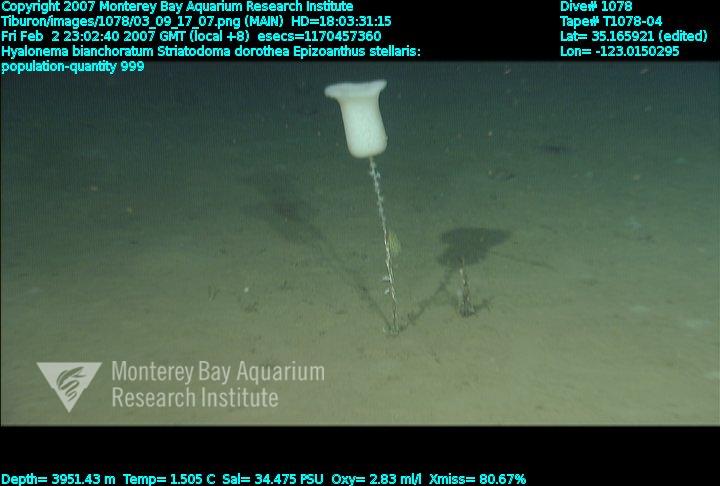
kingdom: Animalia
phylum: Porifera
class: Hexactinellida
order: Amphidiscosida
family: Hyalonematidae
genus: Hyalonema
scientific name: Hyalonema bianchoratum
